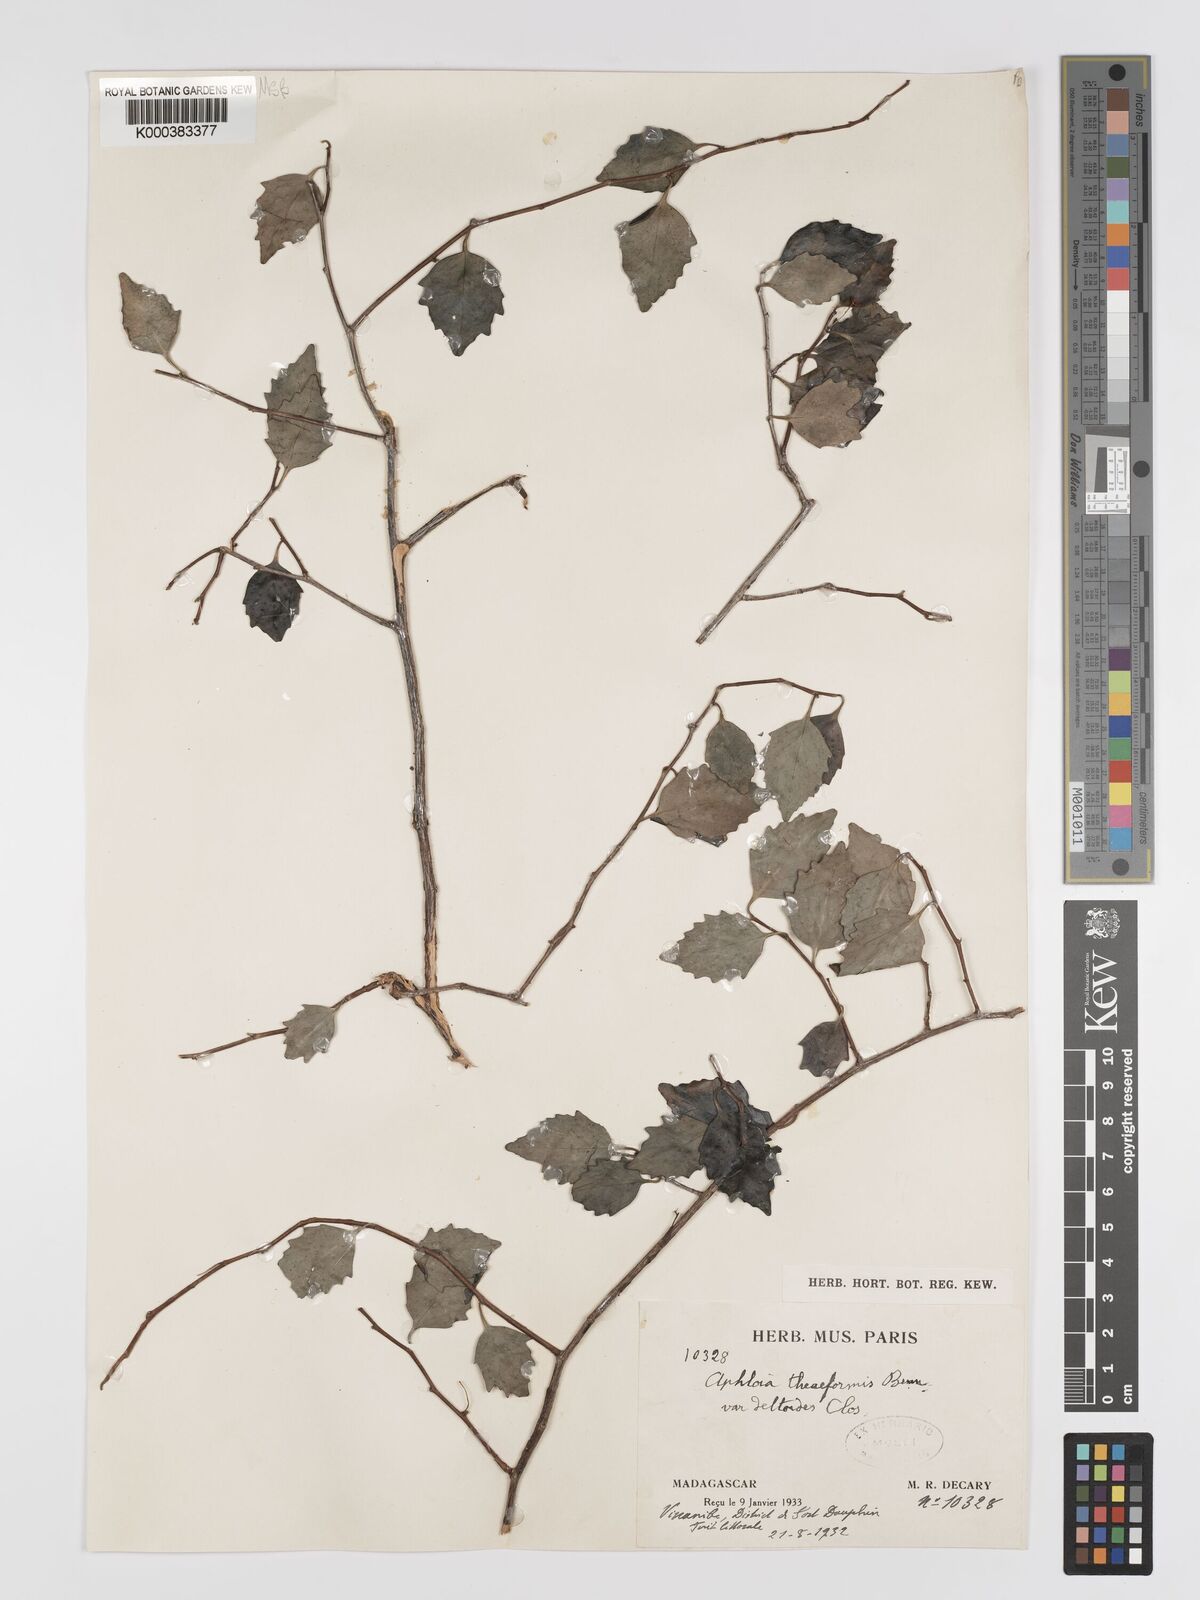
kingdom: Plantae
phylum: Tracheophyta
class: Magnoliopsida
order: Crossosomatales
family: Aphloiaceae
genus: Aphloia
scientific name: Aphloia theiformis
